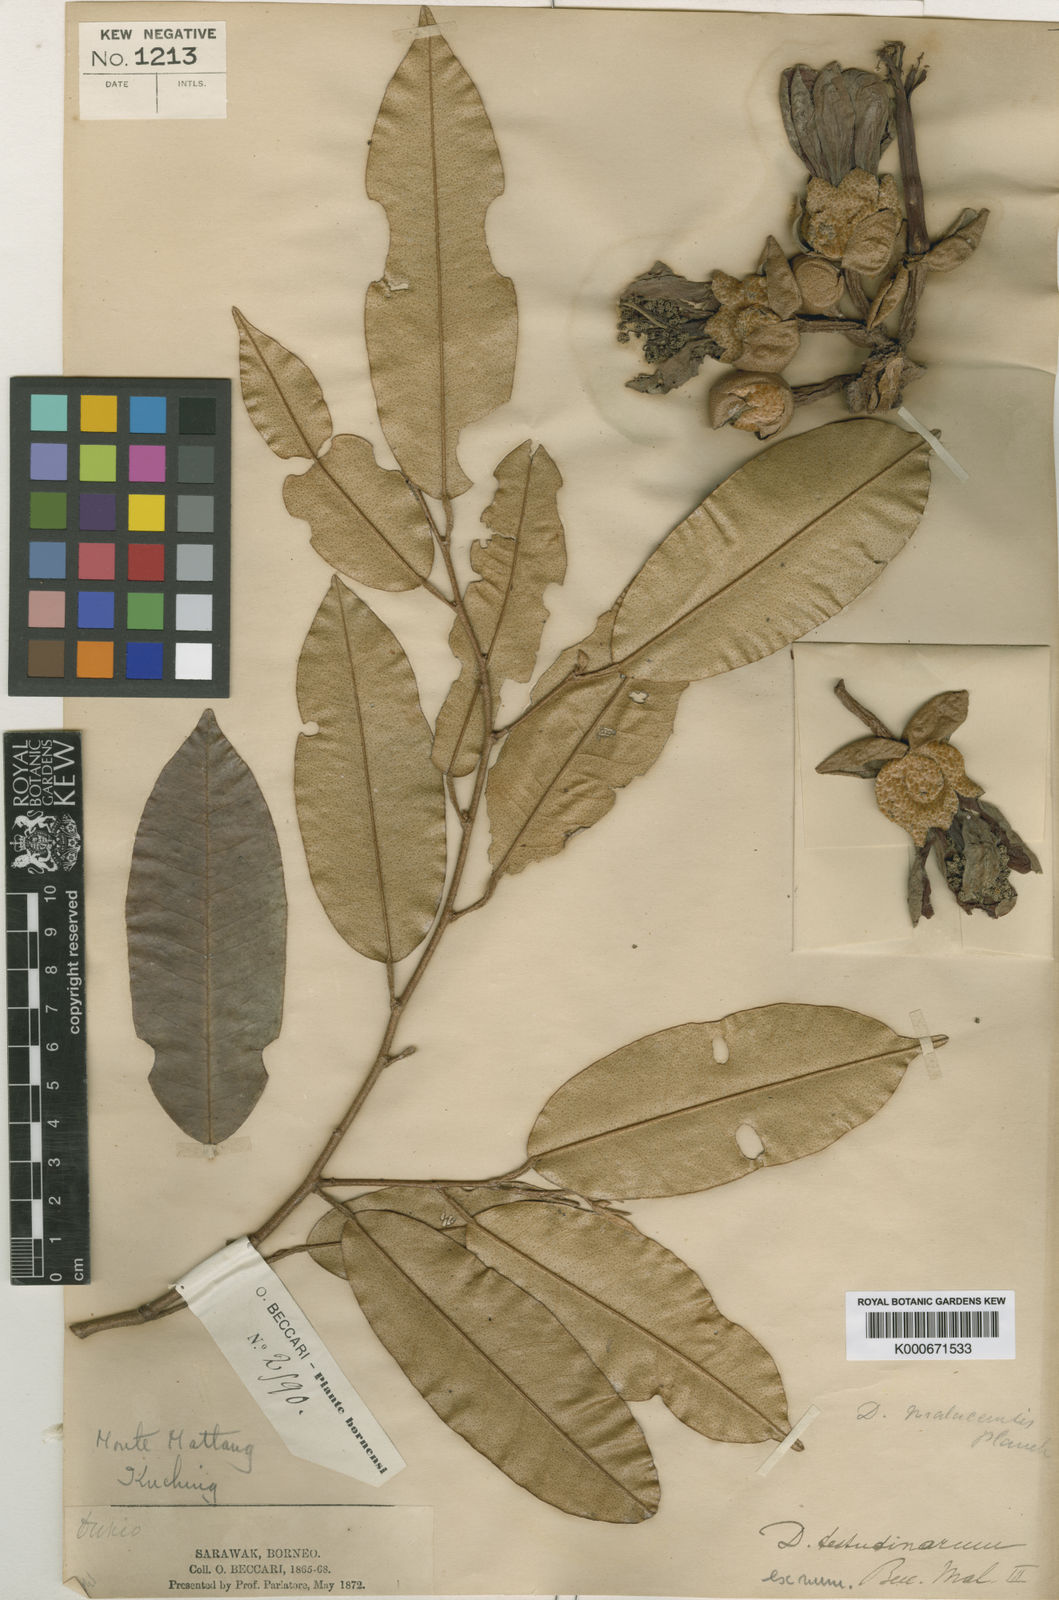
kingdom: Plantae
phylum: Tracheophyta
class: Magnoliopsida
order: Malvales
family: Malvaceae
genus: Durio
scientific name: Durio testudinarius
